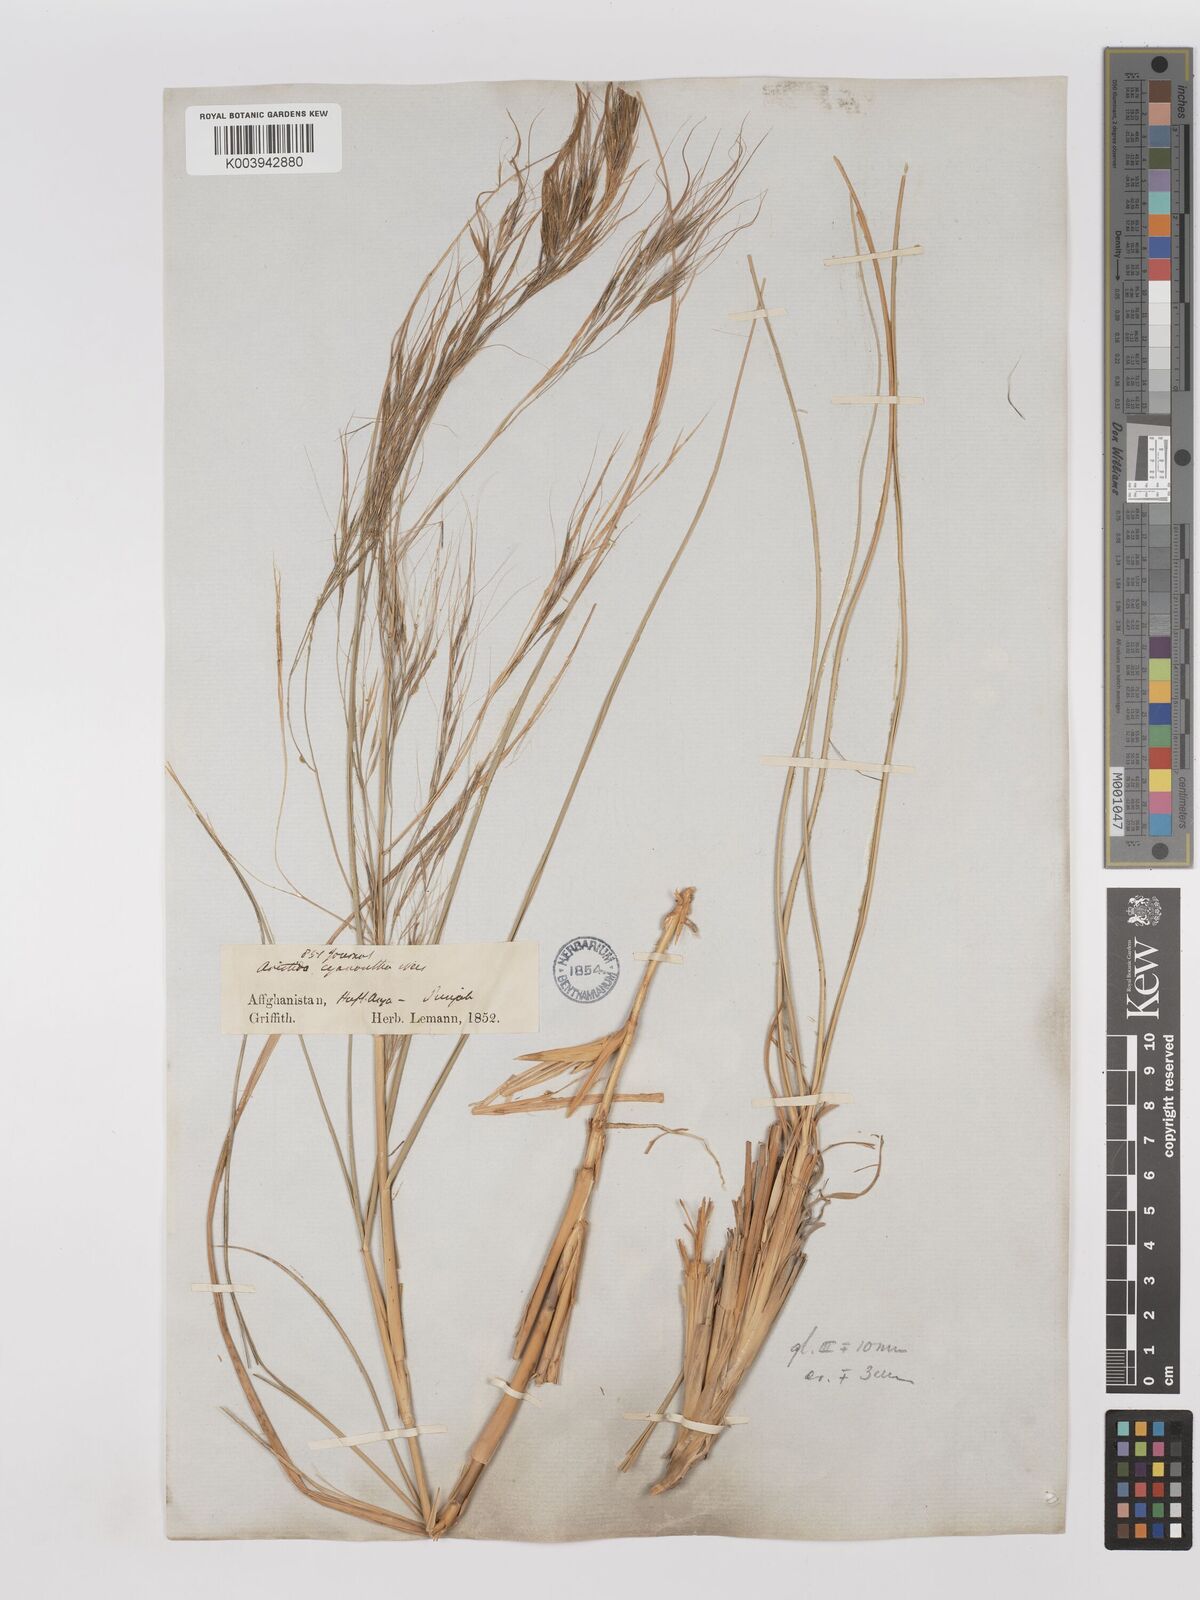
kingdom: Plantae
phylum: Tracheophyta
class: Liliopsida
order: Poales
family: Poaceae
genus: Aristida
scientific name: Aristida cyanantha
